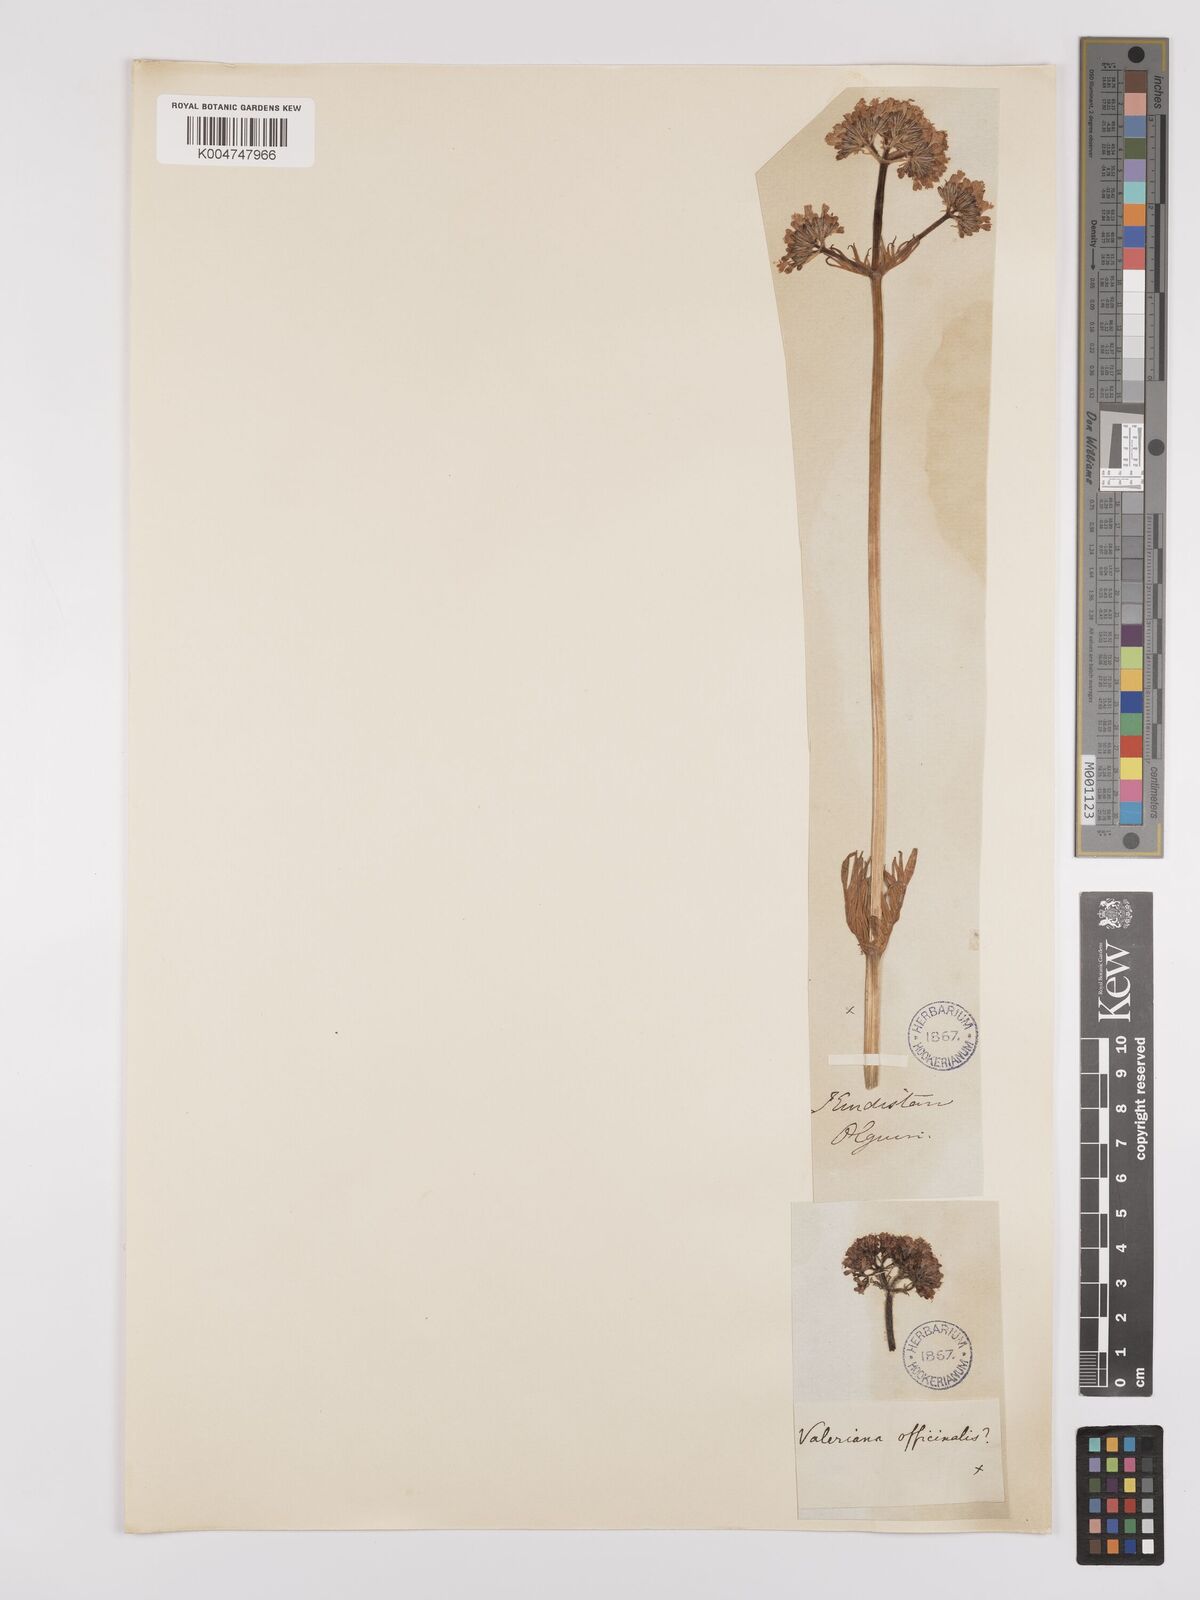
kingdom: Plantae
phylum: Tracheophyta
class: Magnoliopsida
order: Dipsacales
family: Caprifoliaceae
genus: Valeriana
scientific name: Valeriana officinalis
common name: Common valerian
